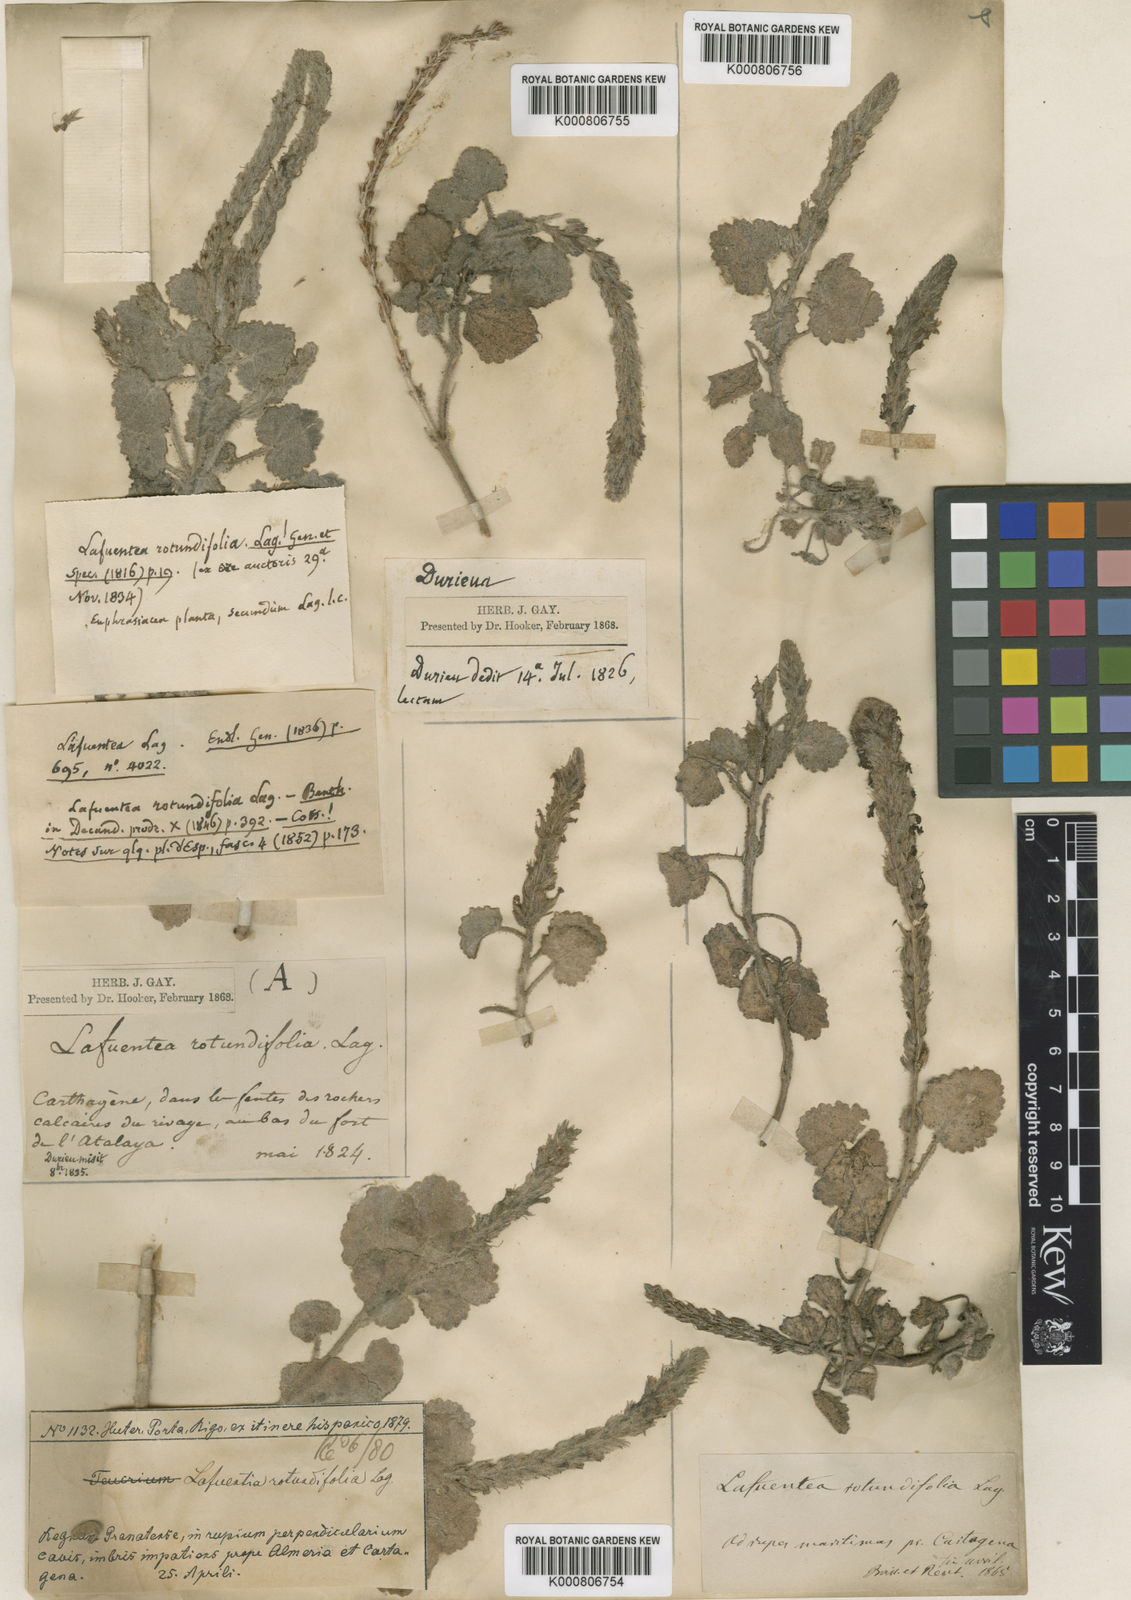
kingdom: Plantae
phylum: Tracheophyta
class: Magnoliopsida
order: Lamiales
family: Plantaginaceae
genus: Lafuentea
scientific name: Lafuentea rotundifolia
